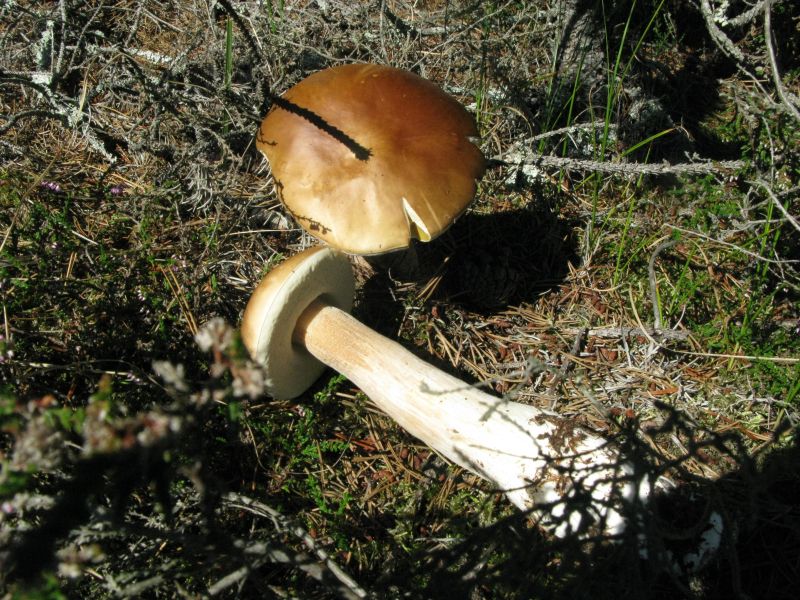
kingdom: Fungi
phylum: Basidiomycota
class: Agaricomycetes
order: Boletales
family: Boletaceae
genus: Boletus
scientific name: Boletus edulis
